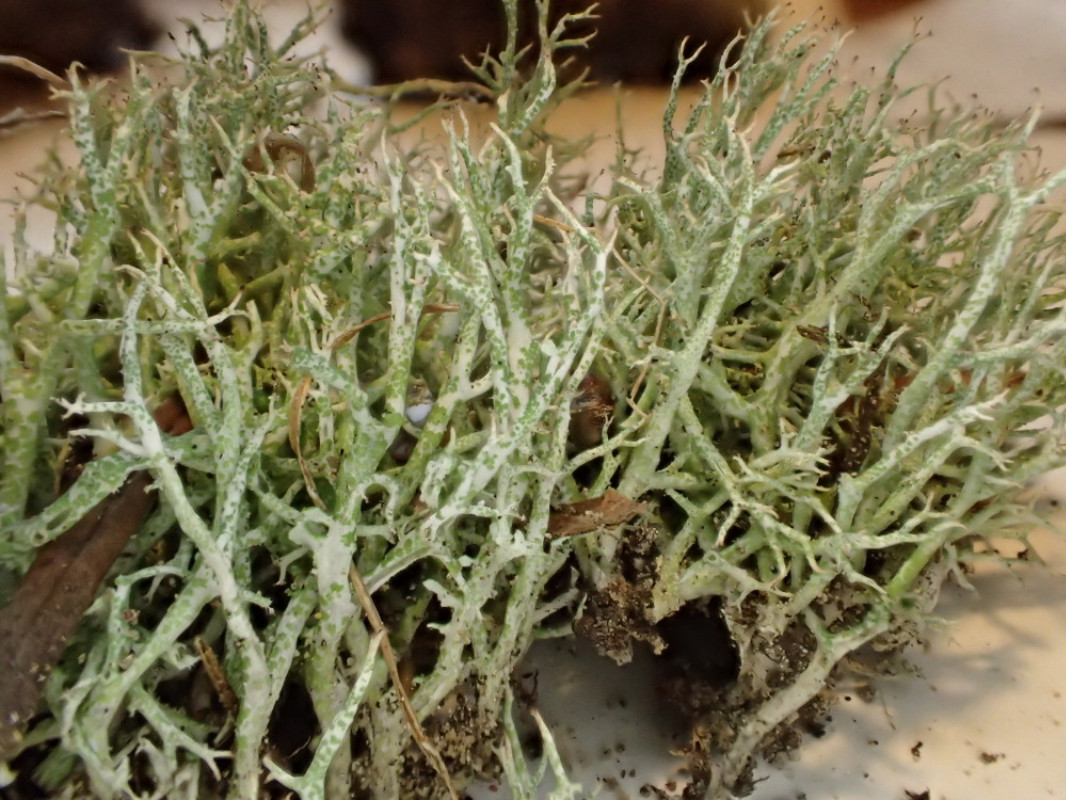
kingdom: Fungi
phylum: Ascomycota
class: Lecanoromycetes
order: Lecanorales
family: Cladoniaceae
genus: Cladonia
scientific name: Cladonia rangiformis
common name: spættet bægerlav
